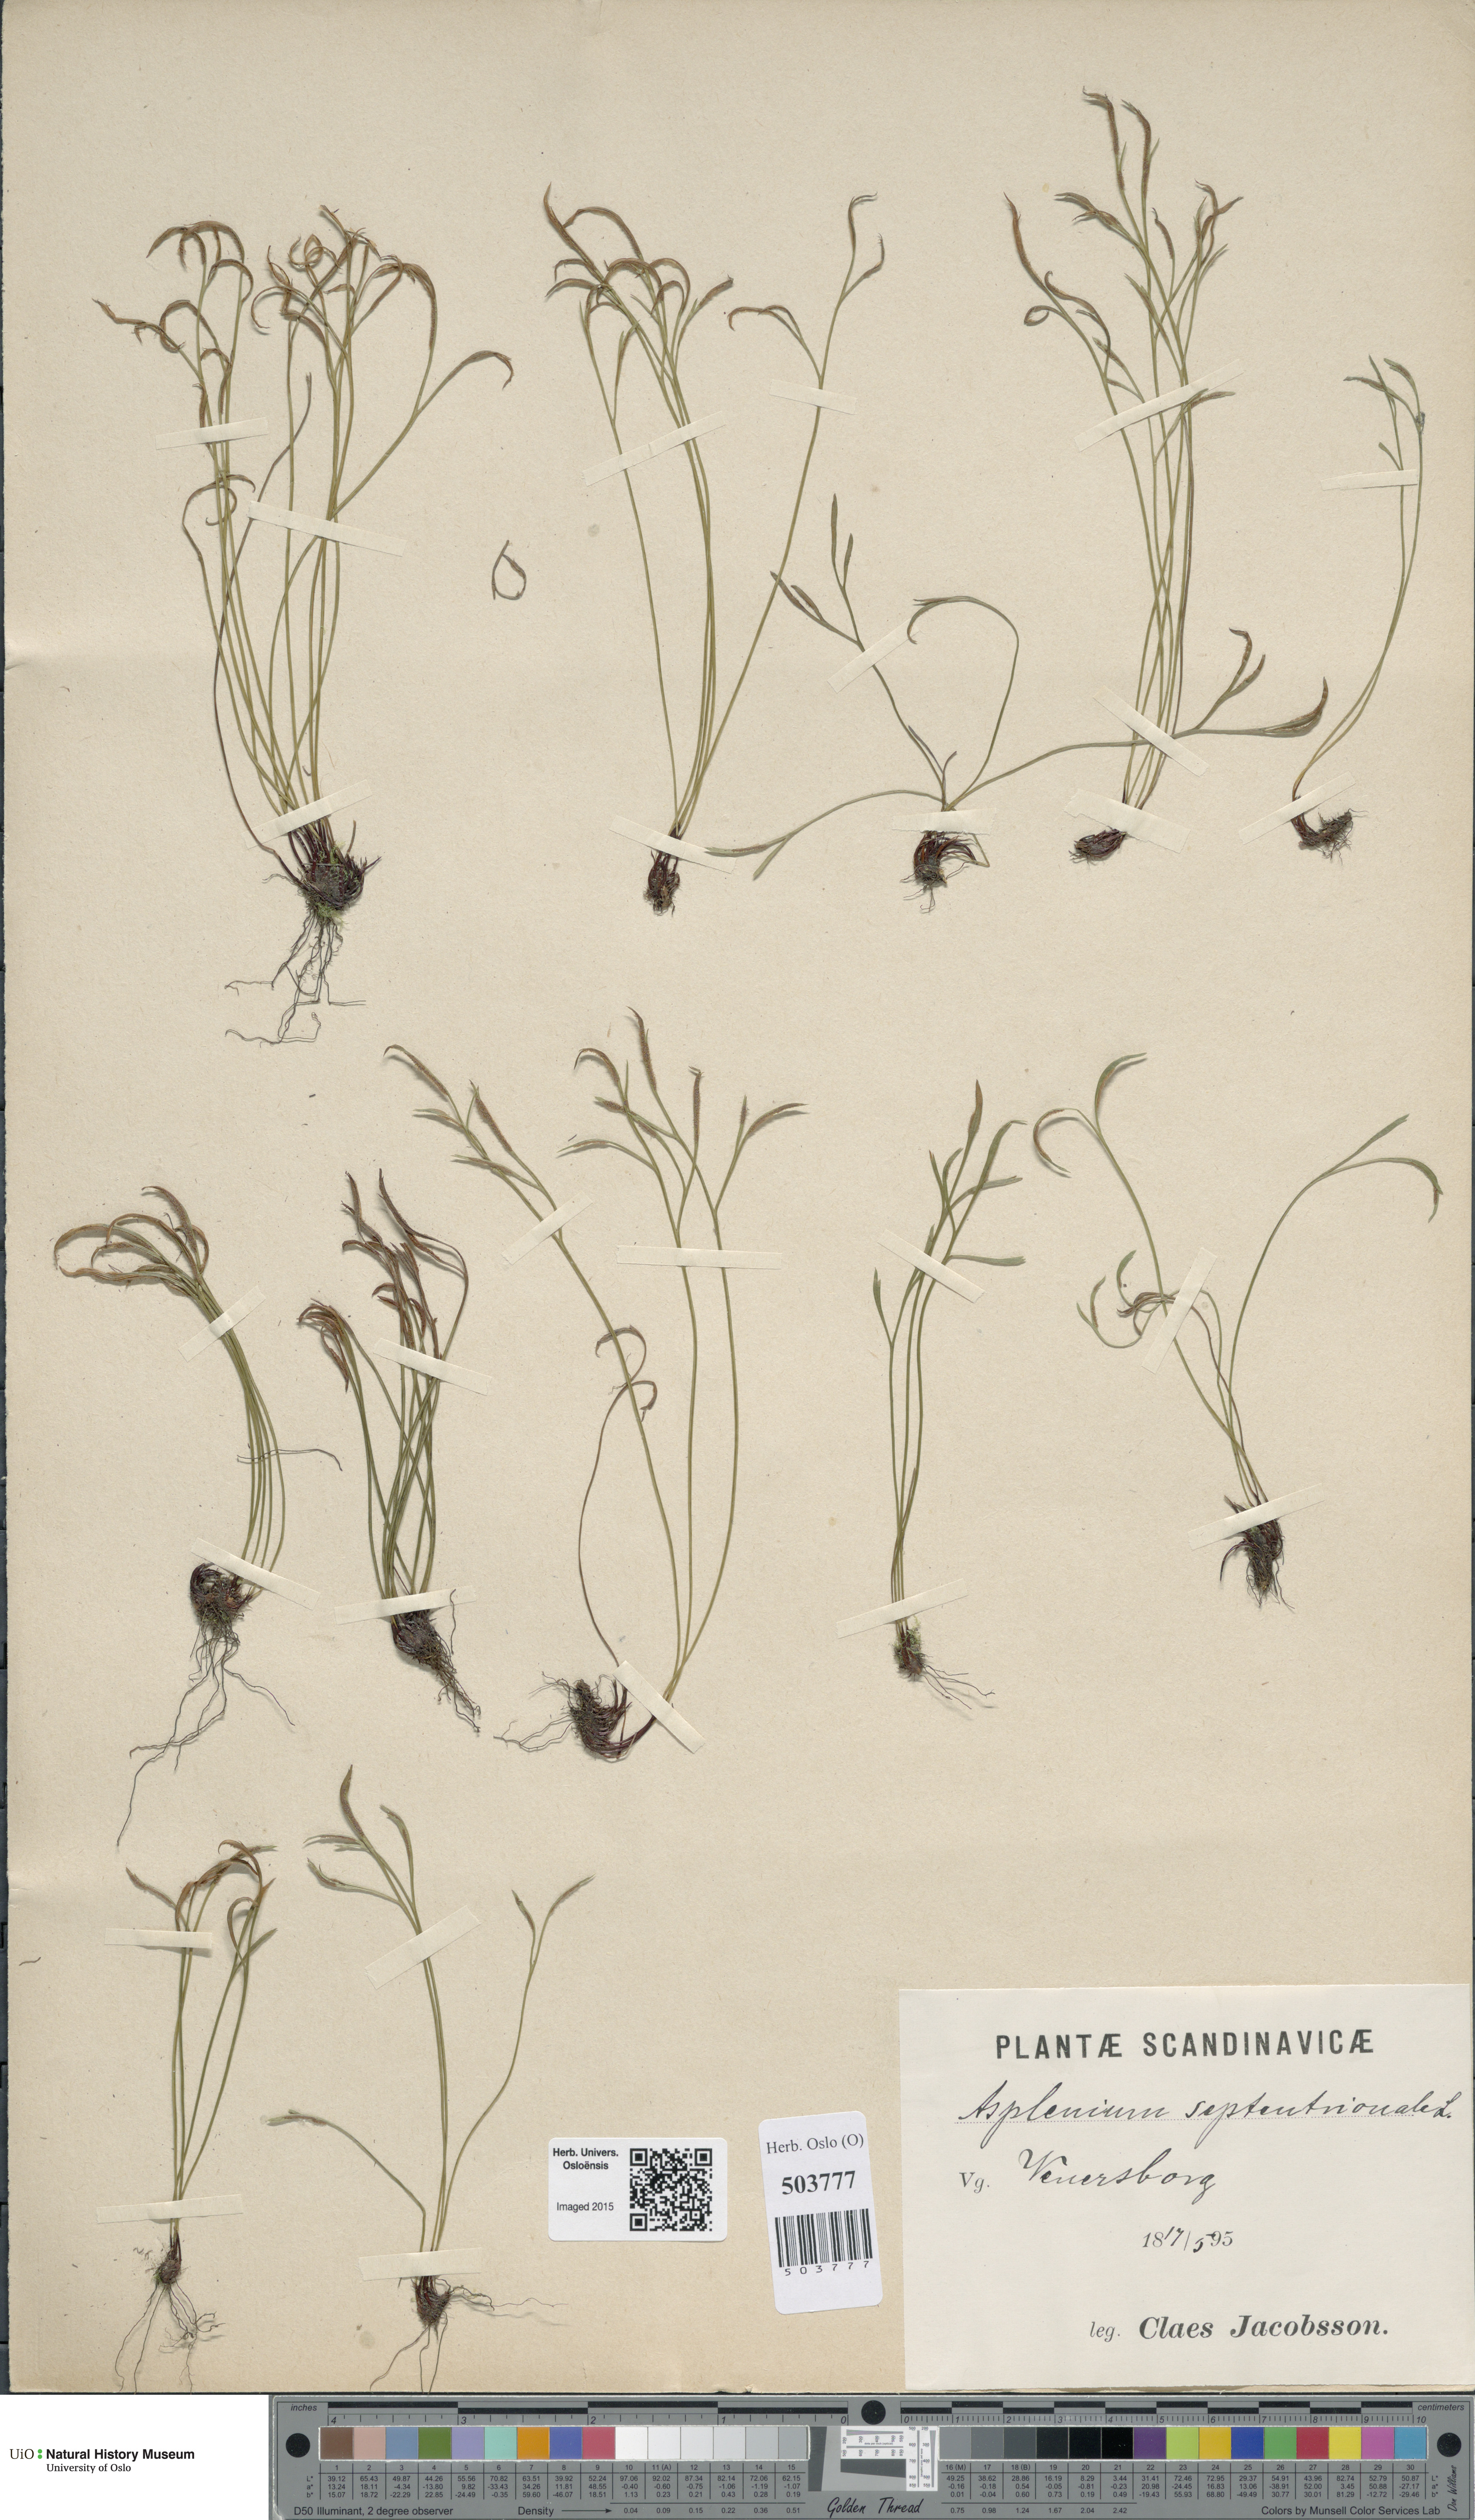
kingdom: Plantae
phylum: Tracheophyta
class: Polypodiopsida
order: Polypodiales
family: Aspleniaceae
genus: Asplenium
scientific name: Asplenium septentrionale
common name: Forked spleenwort
